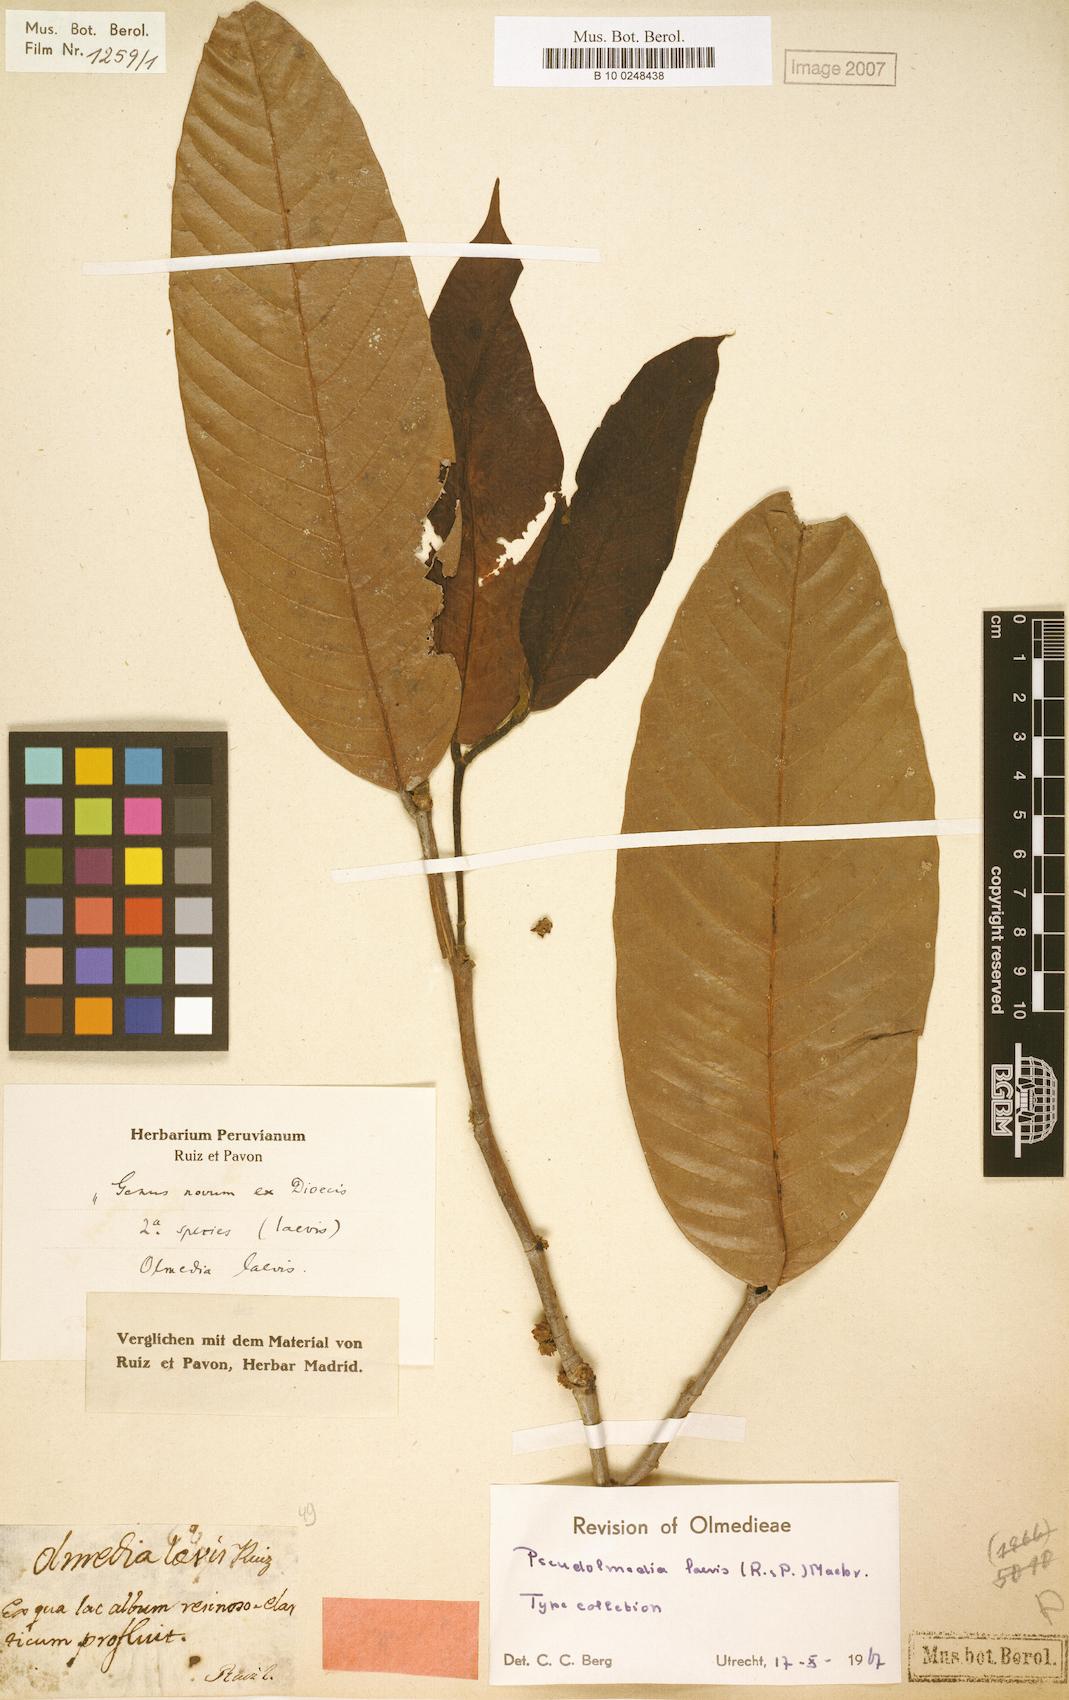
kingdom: Plantae
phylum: Tracheophyta
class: Magnoliopsida
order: Rosales
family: Moraceae
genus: Pseudolmedia
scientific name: Pseudolmedia laevis
